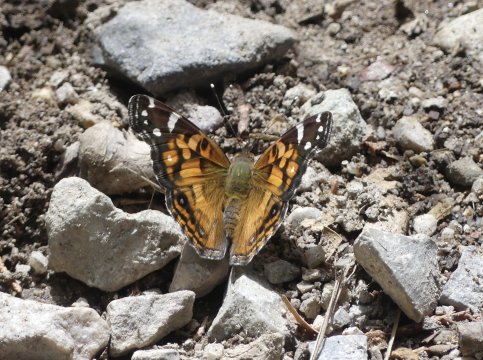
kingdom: Animalia
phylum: Arthropoda
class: Insecta
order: Lepidoptera
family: Nymphalidae
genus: Vanessa
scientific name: Vanessa virginiensis
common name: American Lady
